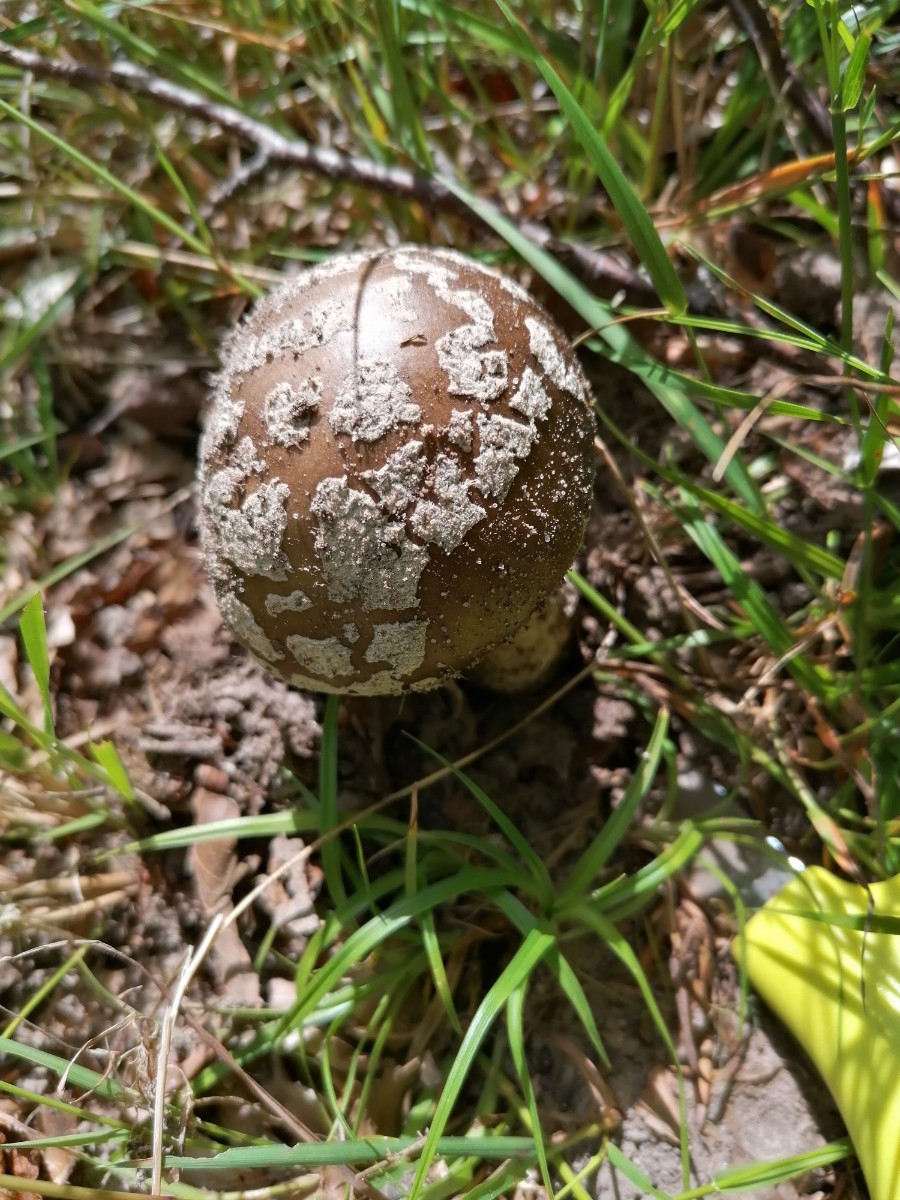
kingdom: Fungi
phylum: Basidiomycota
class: Agaricomycetes
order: Agaricales
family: Amanitaceae
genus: Amanita
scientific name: Amanita
